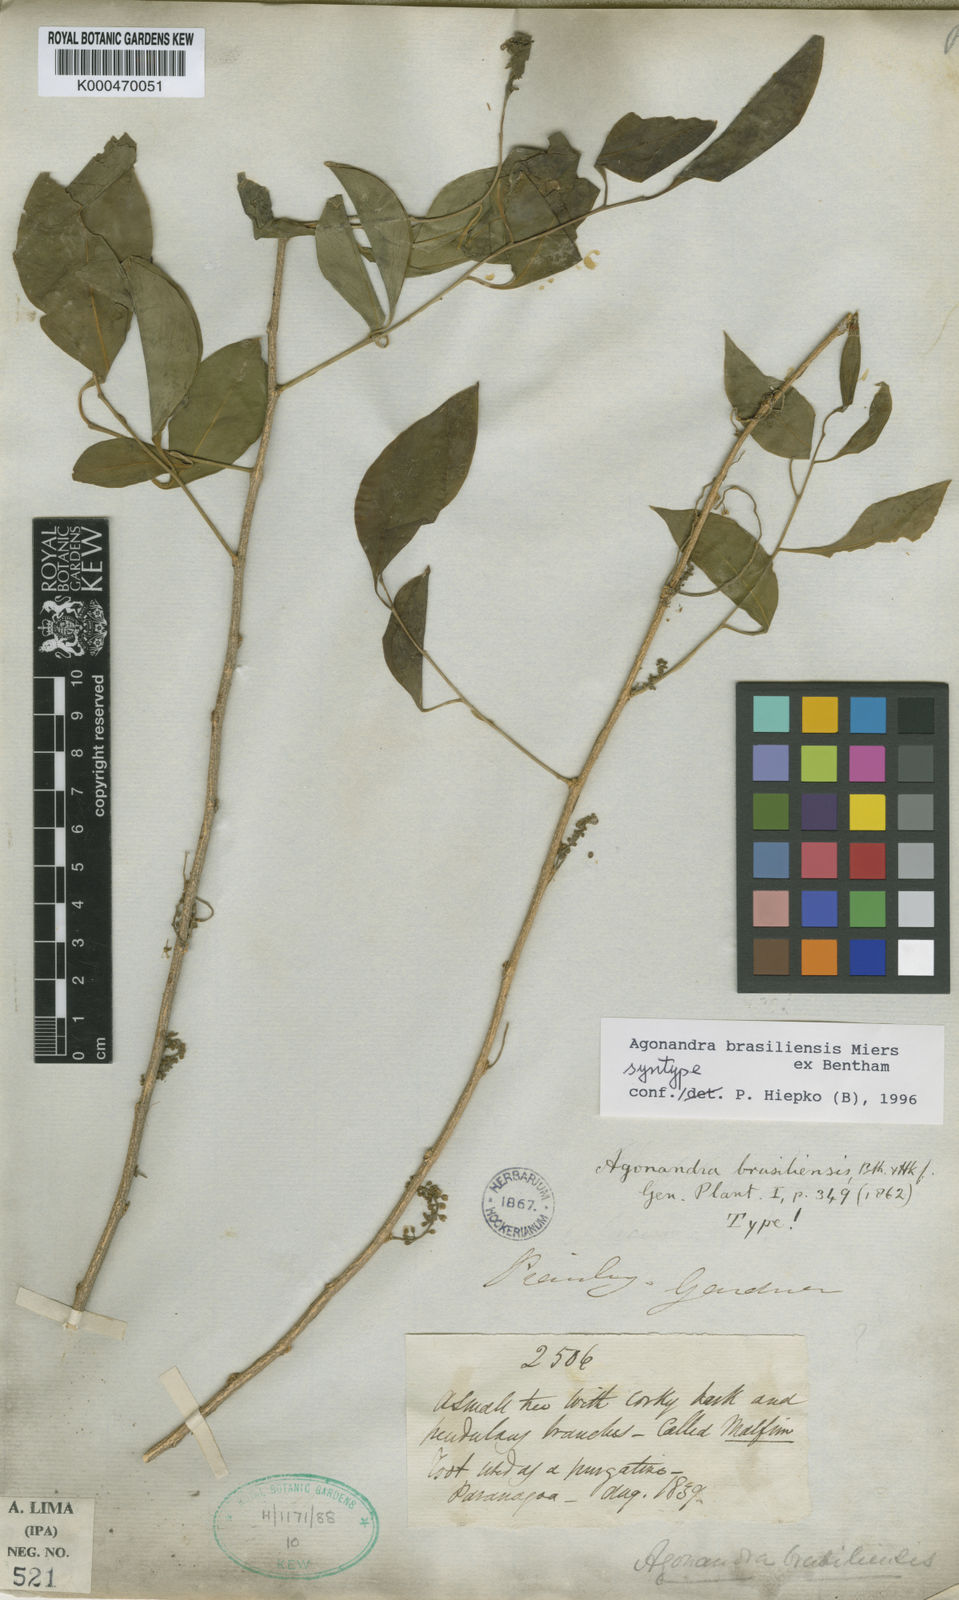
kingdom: Plantae
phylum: Tracheophyta
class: Magnoliopsida
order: Santalales
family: Opiliaceae
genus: Agonandra
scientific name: Agonandra brasiliensis
